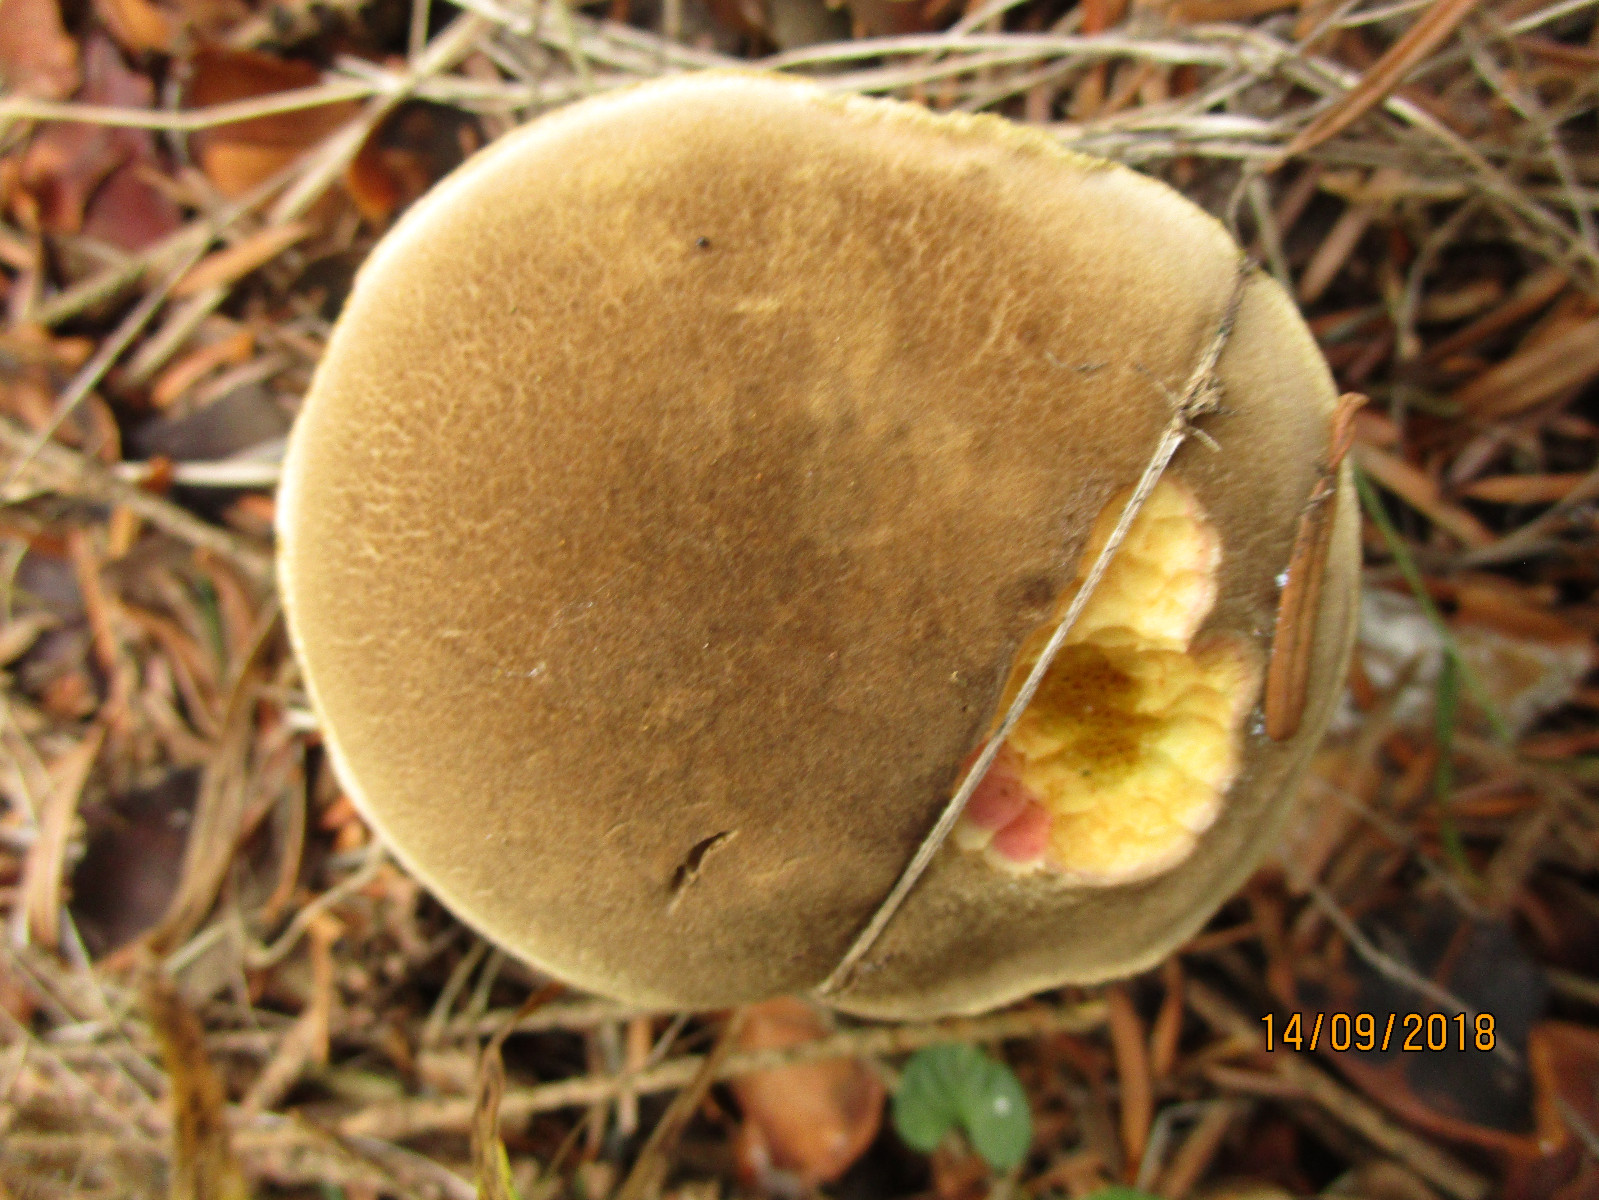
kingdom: Fungi
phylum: Basidiomycota
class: Agaricomycetes
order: Boletales
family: Boletaceae
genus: Xerocomellus
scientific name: Xerocomellus chrysenteron
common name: rødsprukken rørhat
